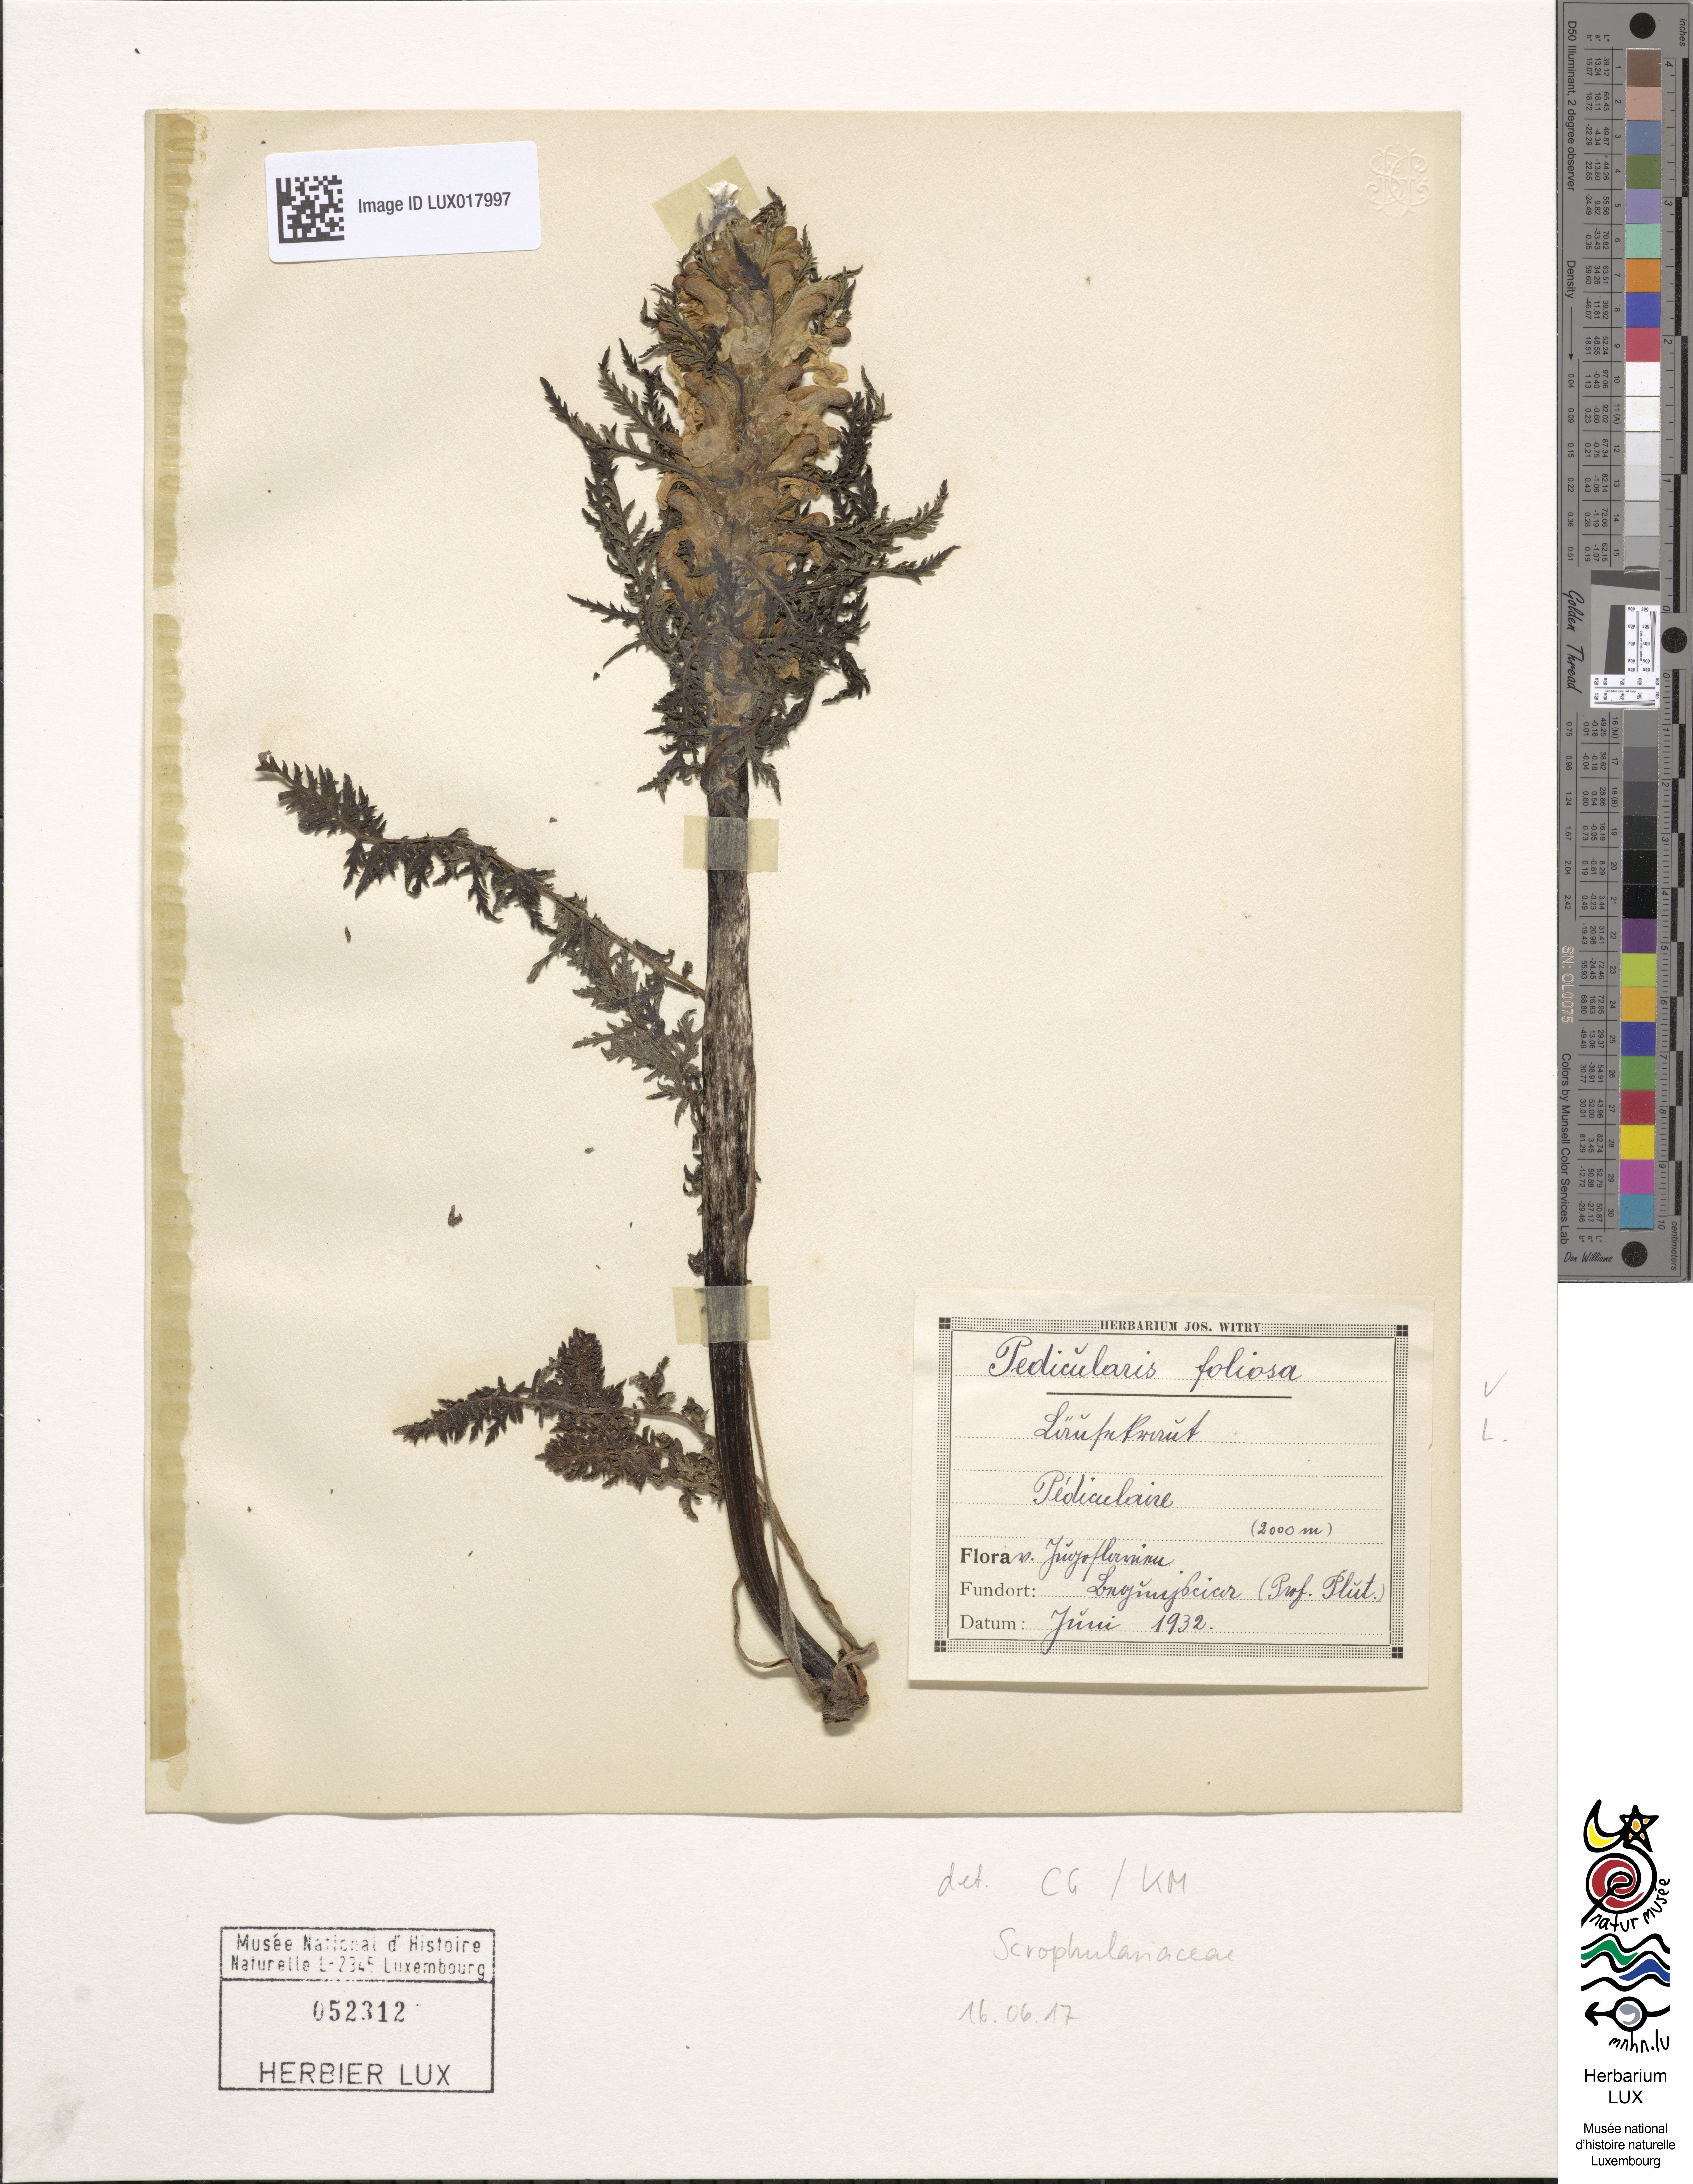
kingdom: Plantae
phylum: Tracheophyta
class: Magnoliopsida
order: Lamiales
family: Orobanchaceae
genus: Pedicularis
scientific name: Pedicularis foliosa
